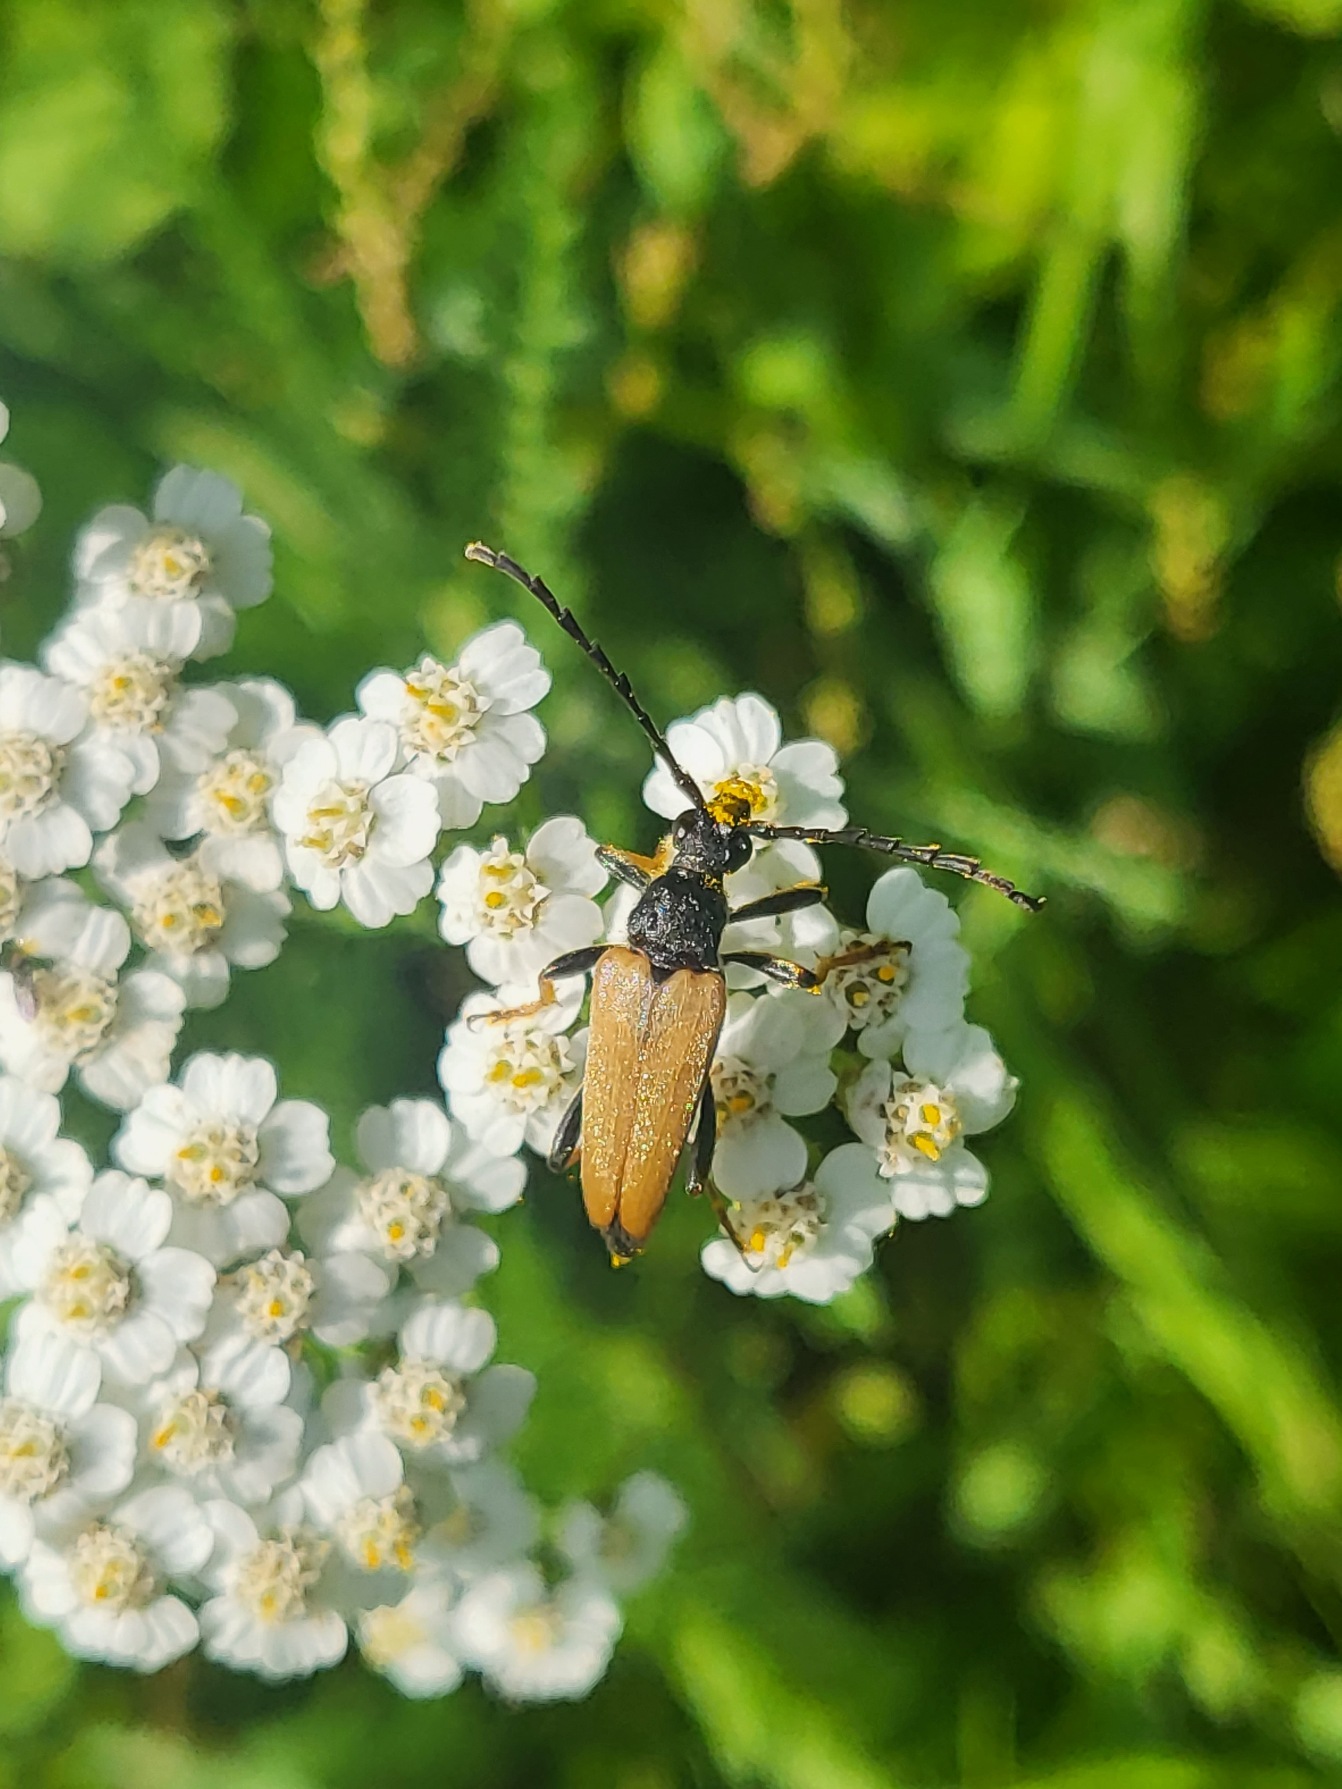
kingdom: Animalia
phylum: Arthropoda
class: Insecta
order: Coleoptera
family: Cerambycidae
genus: Stictoleptura
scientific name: Stictoleptura rubra
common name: Rød blomsterbuk
